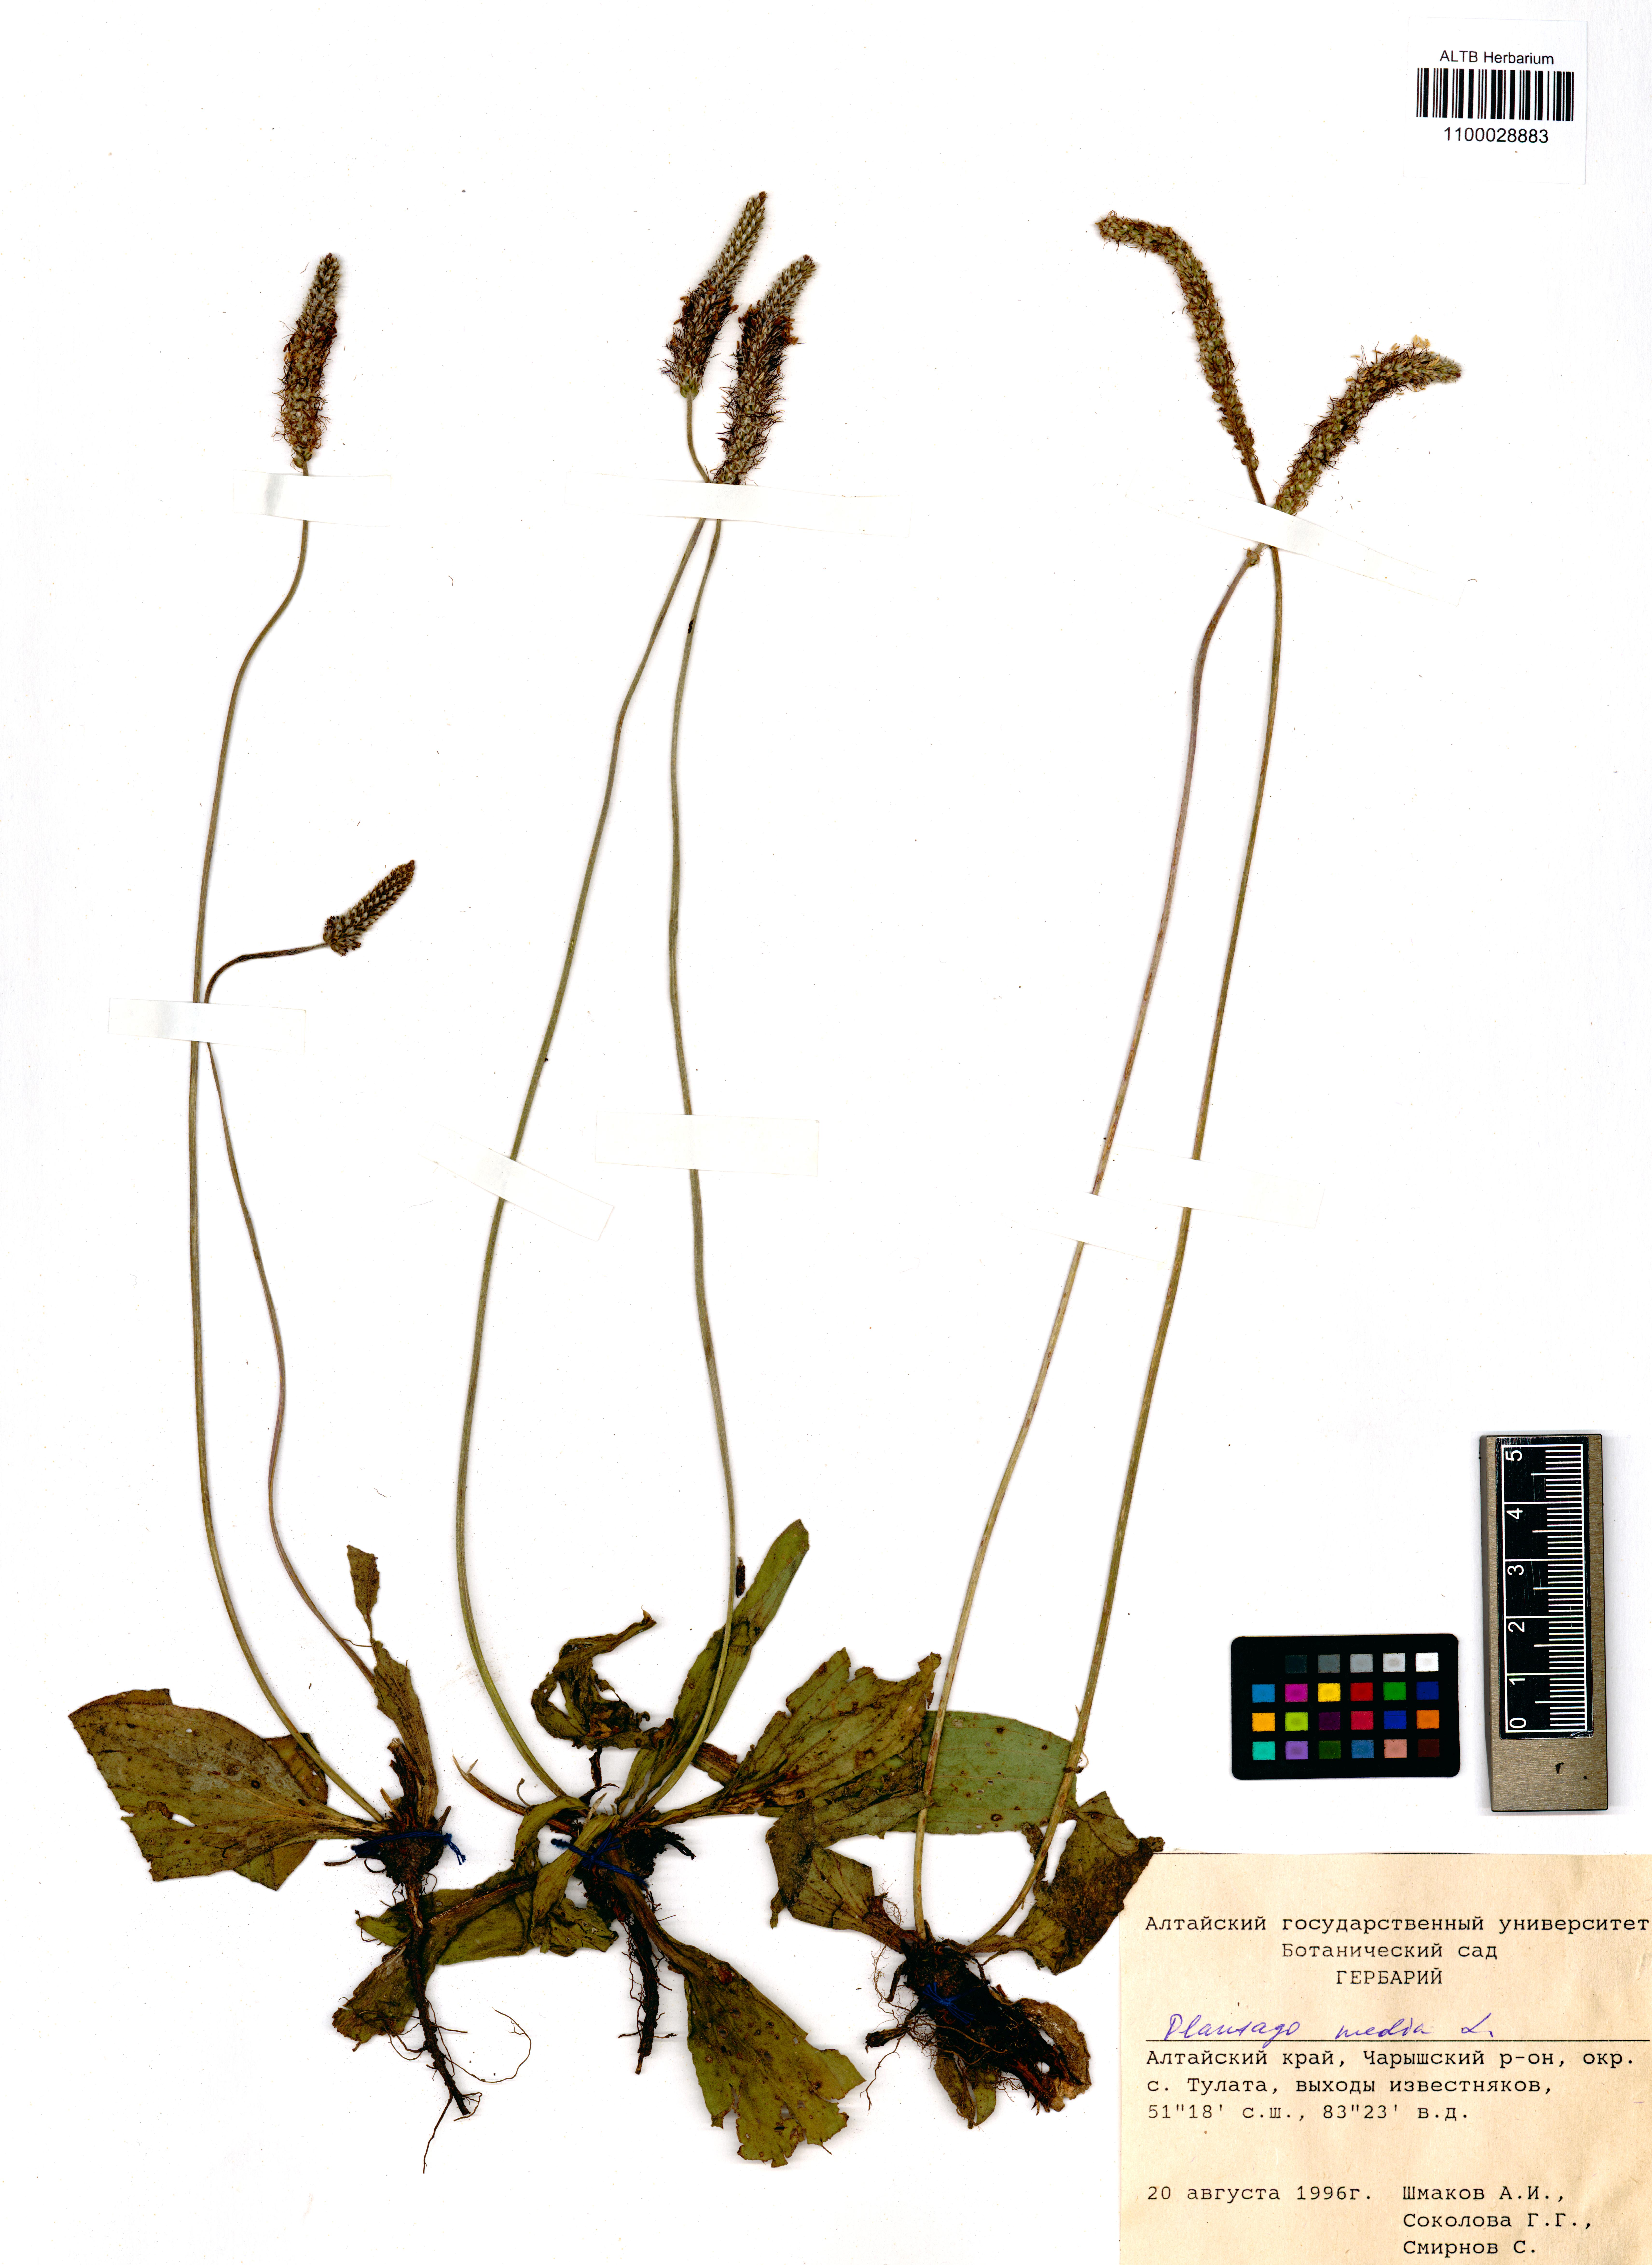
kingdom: Plantae
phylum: Tracheophyta
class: Magnoliopsida
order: Lamiales
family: Plantaginaceae
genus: Plantago
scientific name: Plantago media
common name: Hoary plantain
